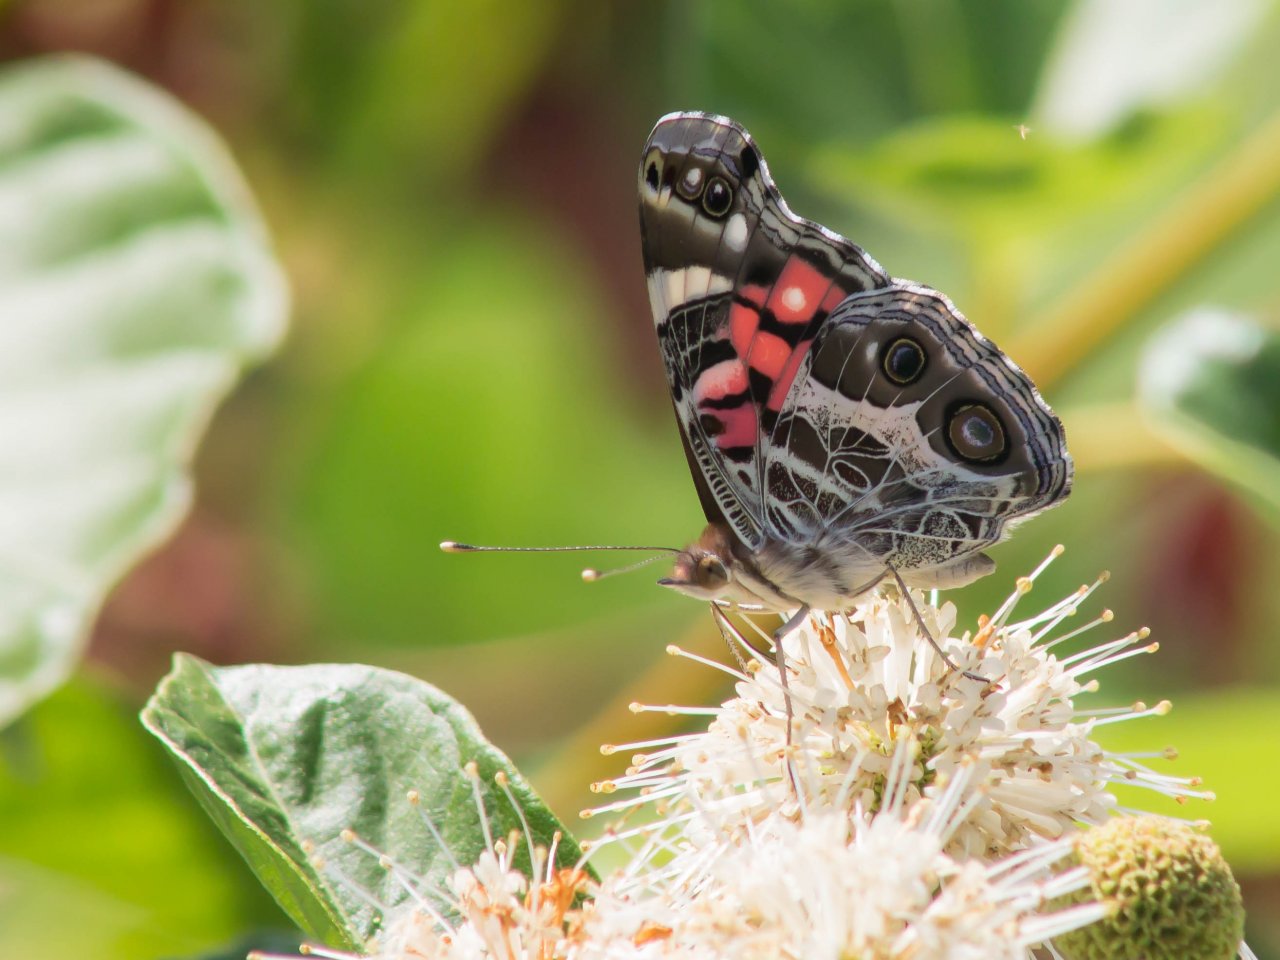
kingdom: Animalia
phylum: Arthropoda
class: Insecta
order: Lepidoptera
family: Nymphalidae
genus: Vanessa
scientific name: Vanessa virginiensis
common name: American Lady
